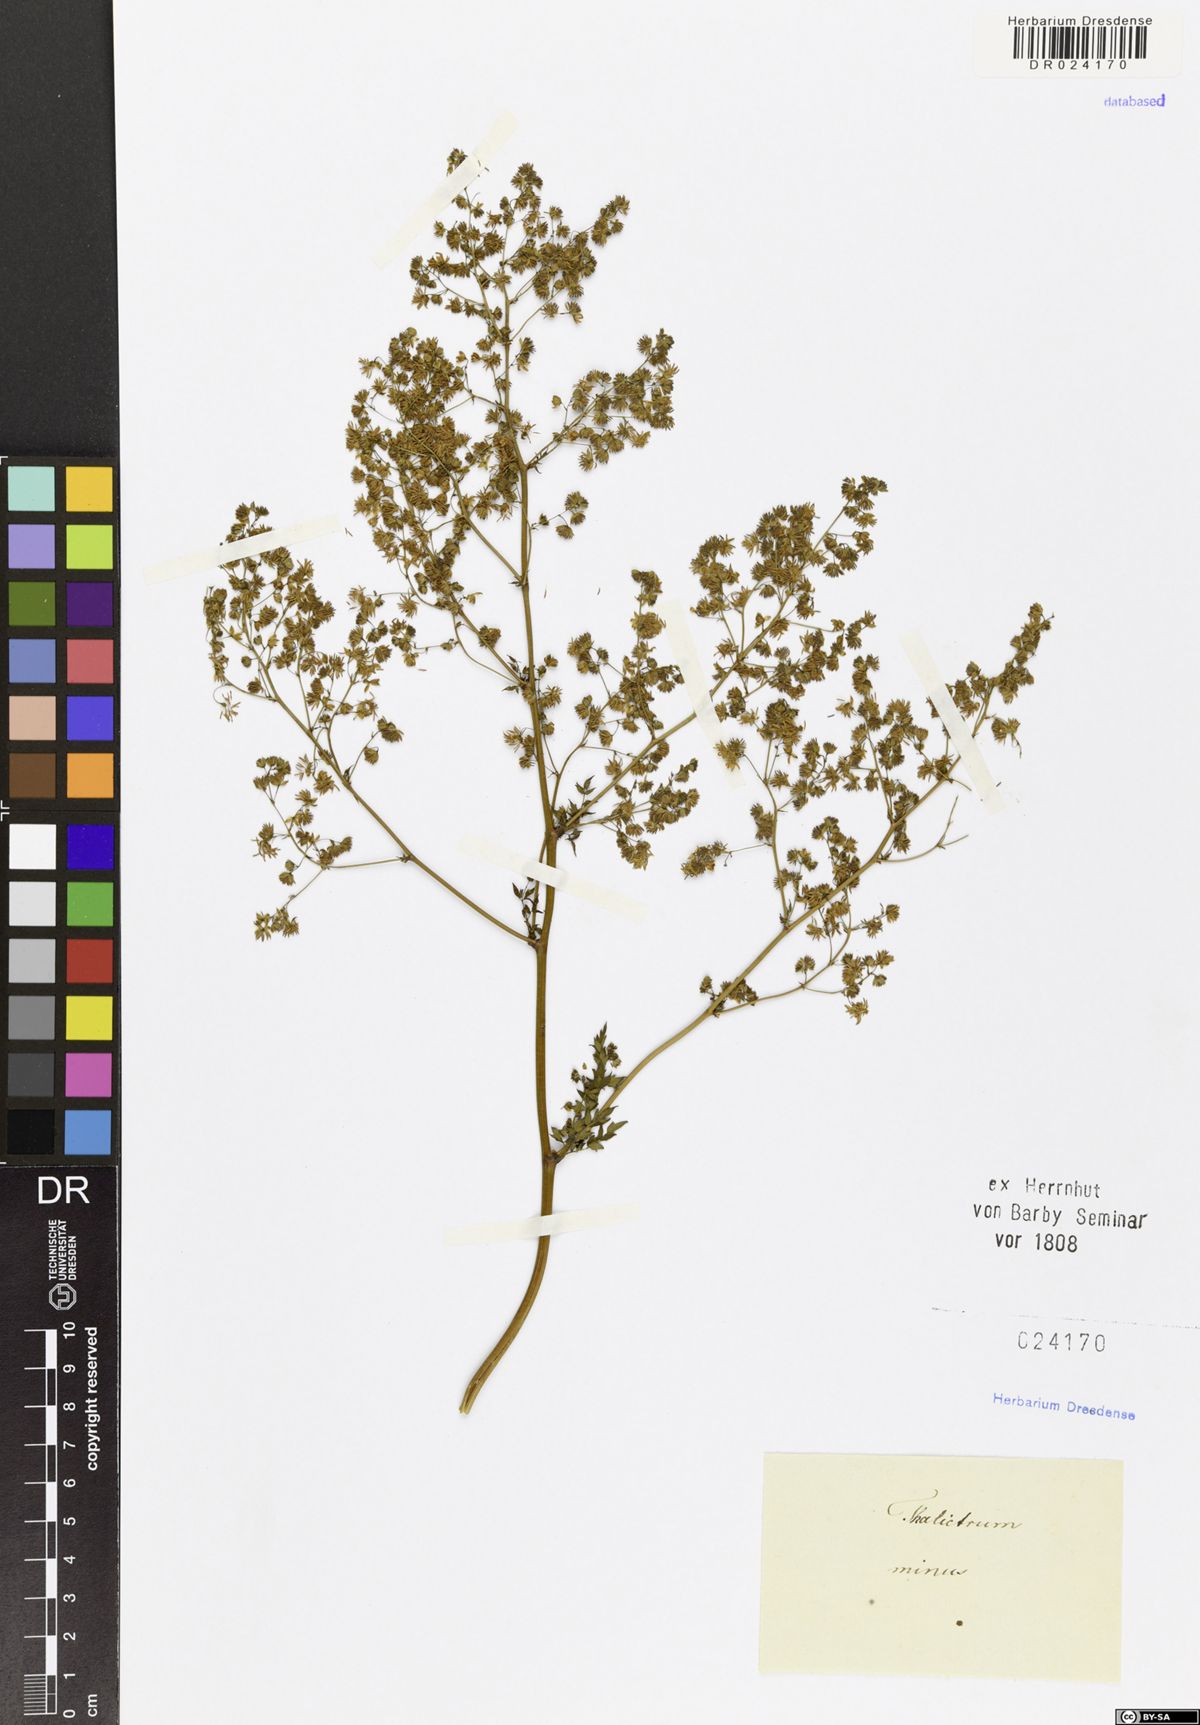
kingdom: Plantae
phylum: Tracheophyta
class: Magnoliopsida
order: Ranunculales
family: Ranunculaceae
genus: Thalictrum
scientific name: Thalictrum minus
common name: Lesser meadow-rue
